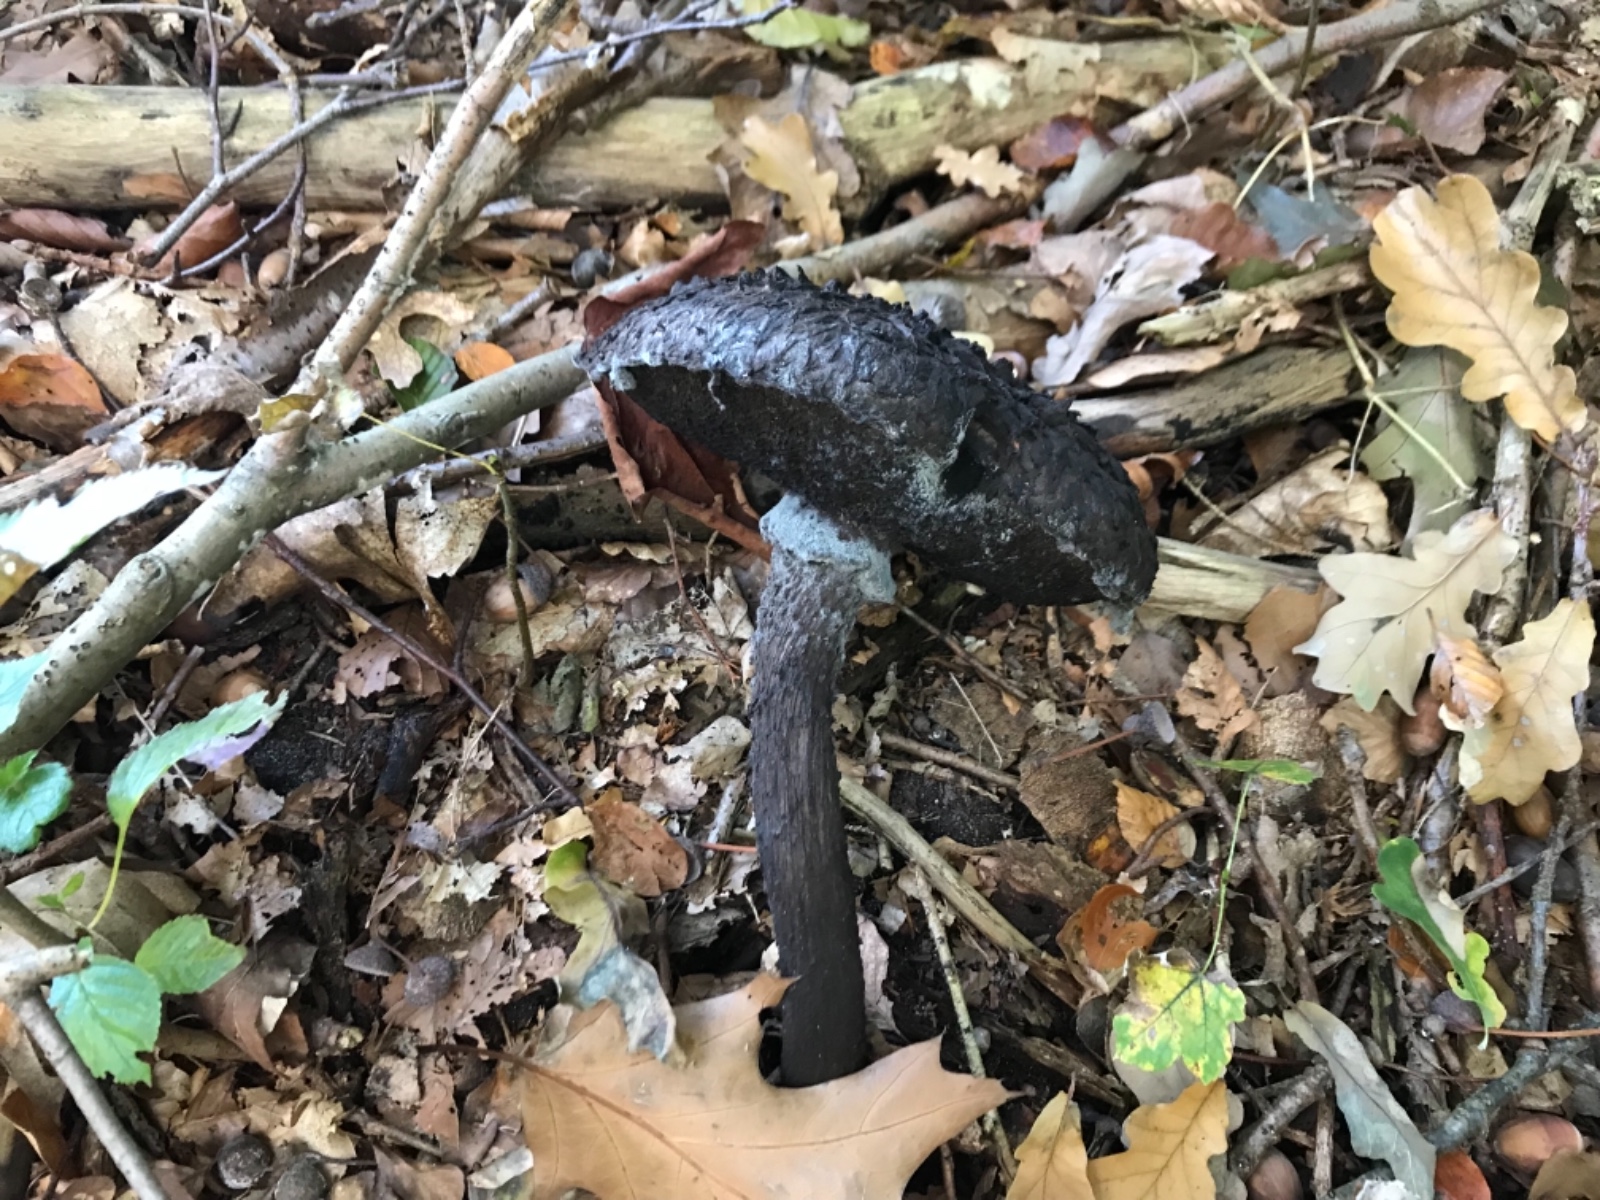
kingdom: Fungi
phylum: Basidiomycota
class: Agaricomycetes
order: Boletales
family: Boletaceae
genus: Strobilomyces
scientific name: Strobilomyces strobilaceus
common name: koglerørhat
